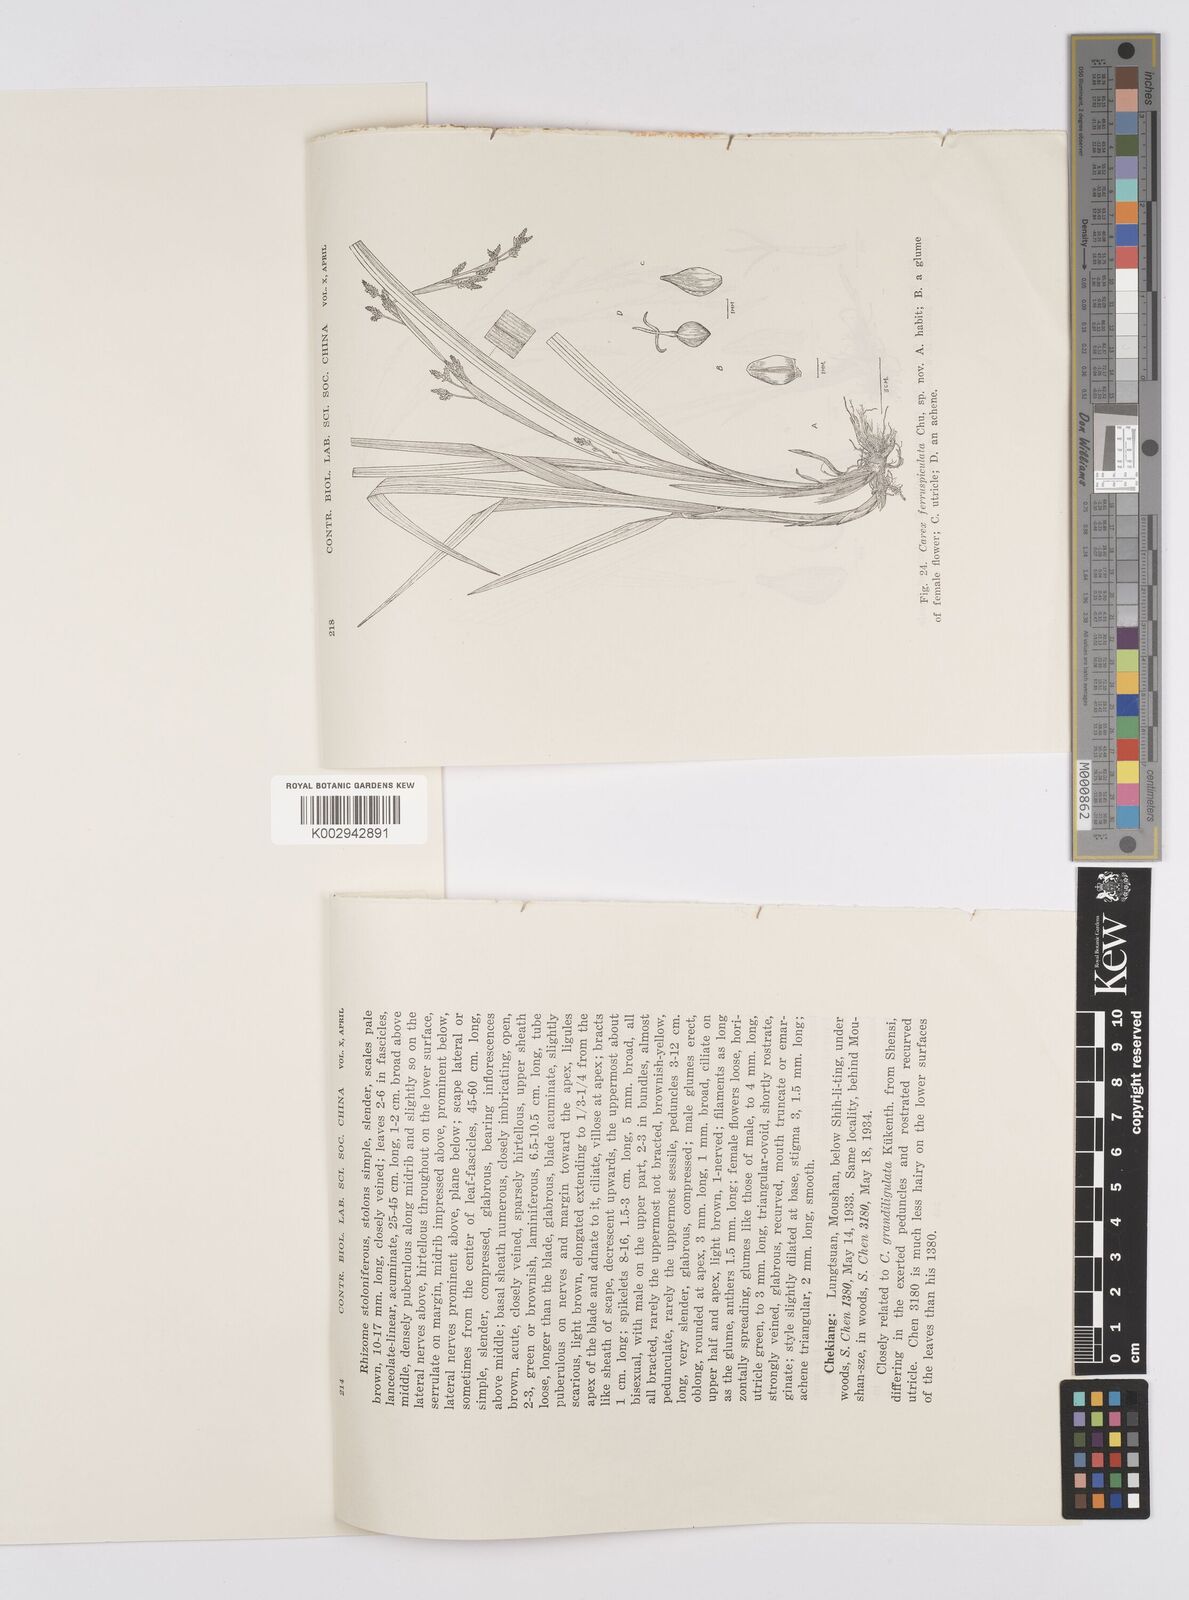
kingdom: Plantae
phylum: Tracheophyta
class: Liliopsida
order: Poales
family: Cyperaceae
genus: Carex
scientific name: Carex glossostigma
